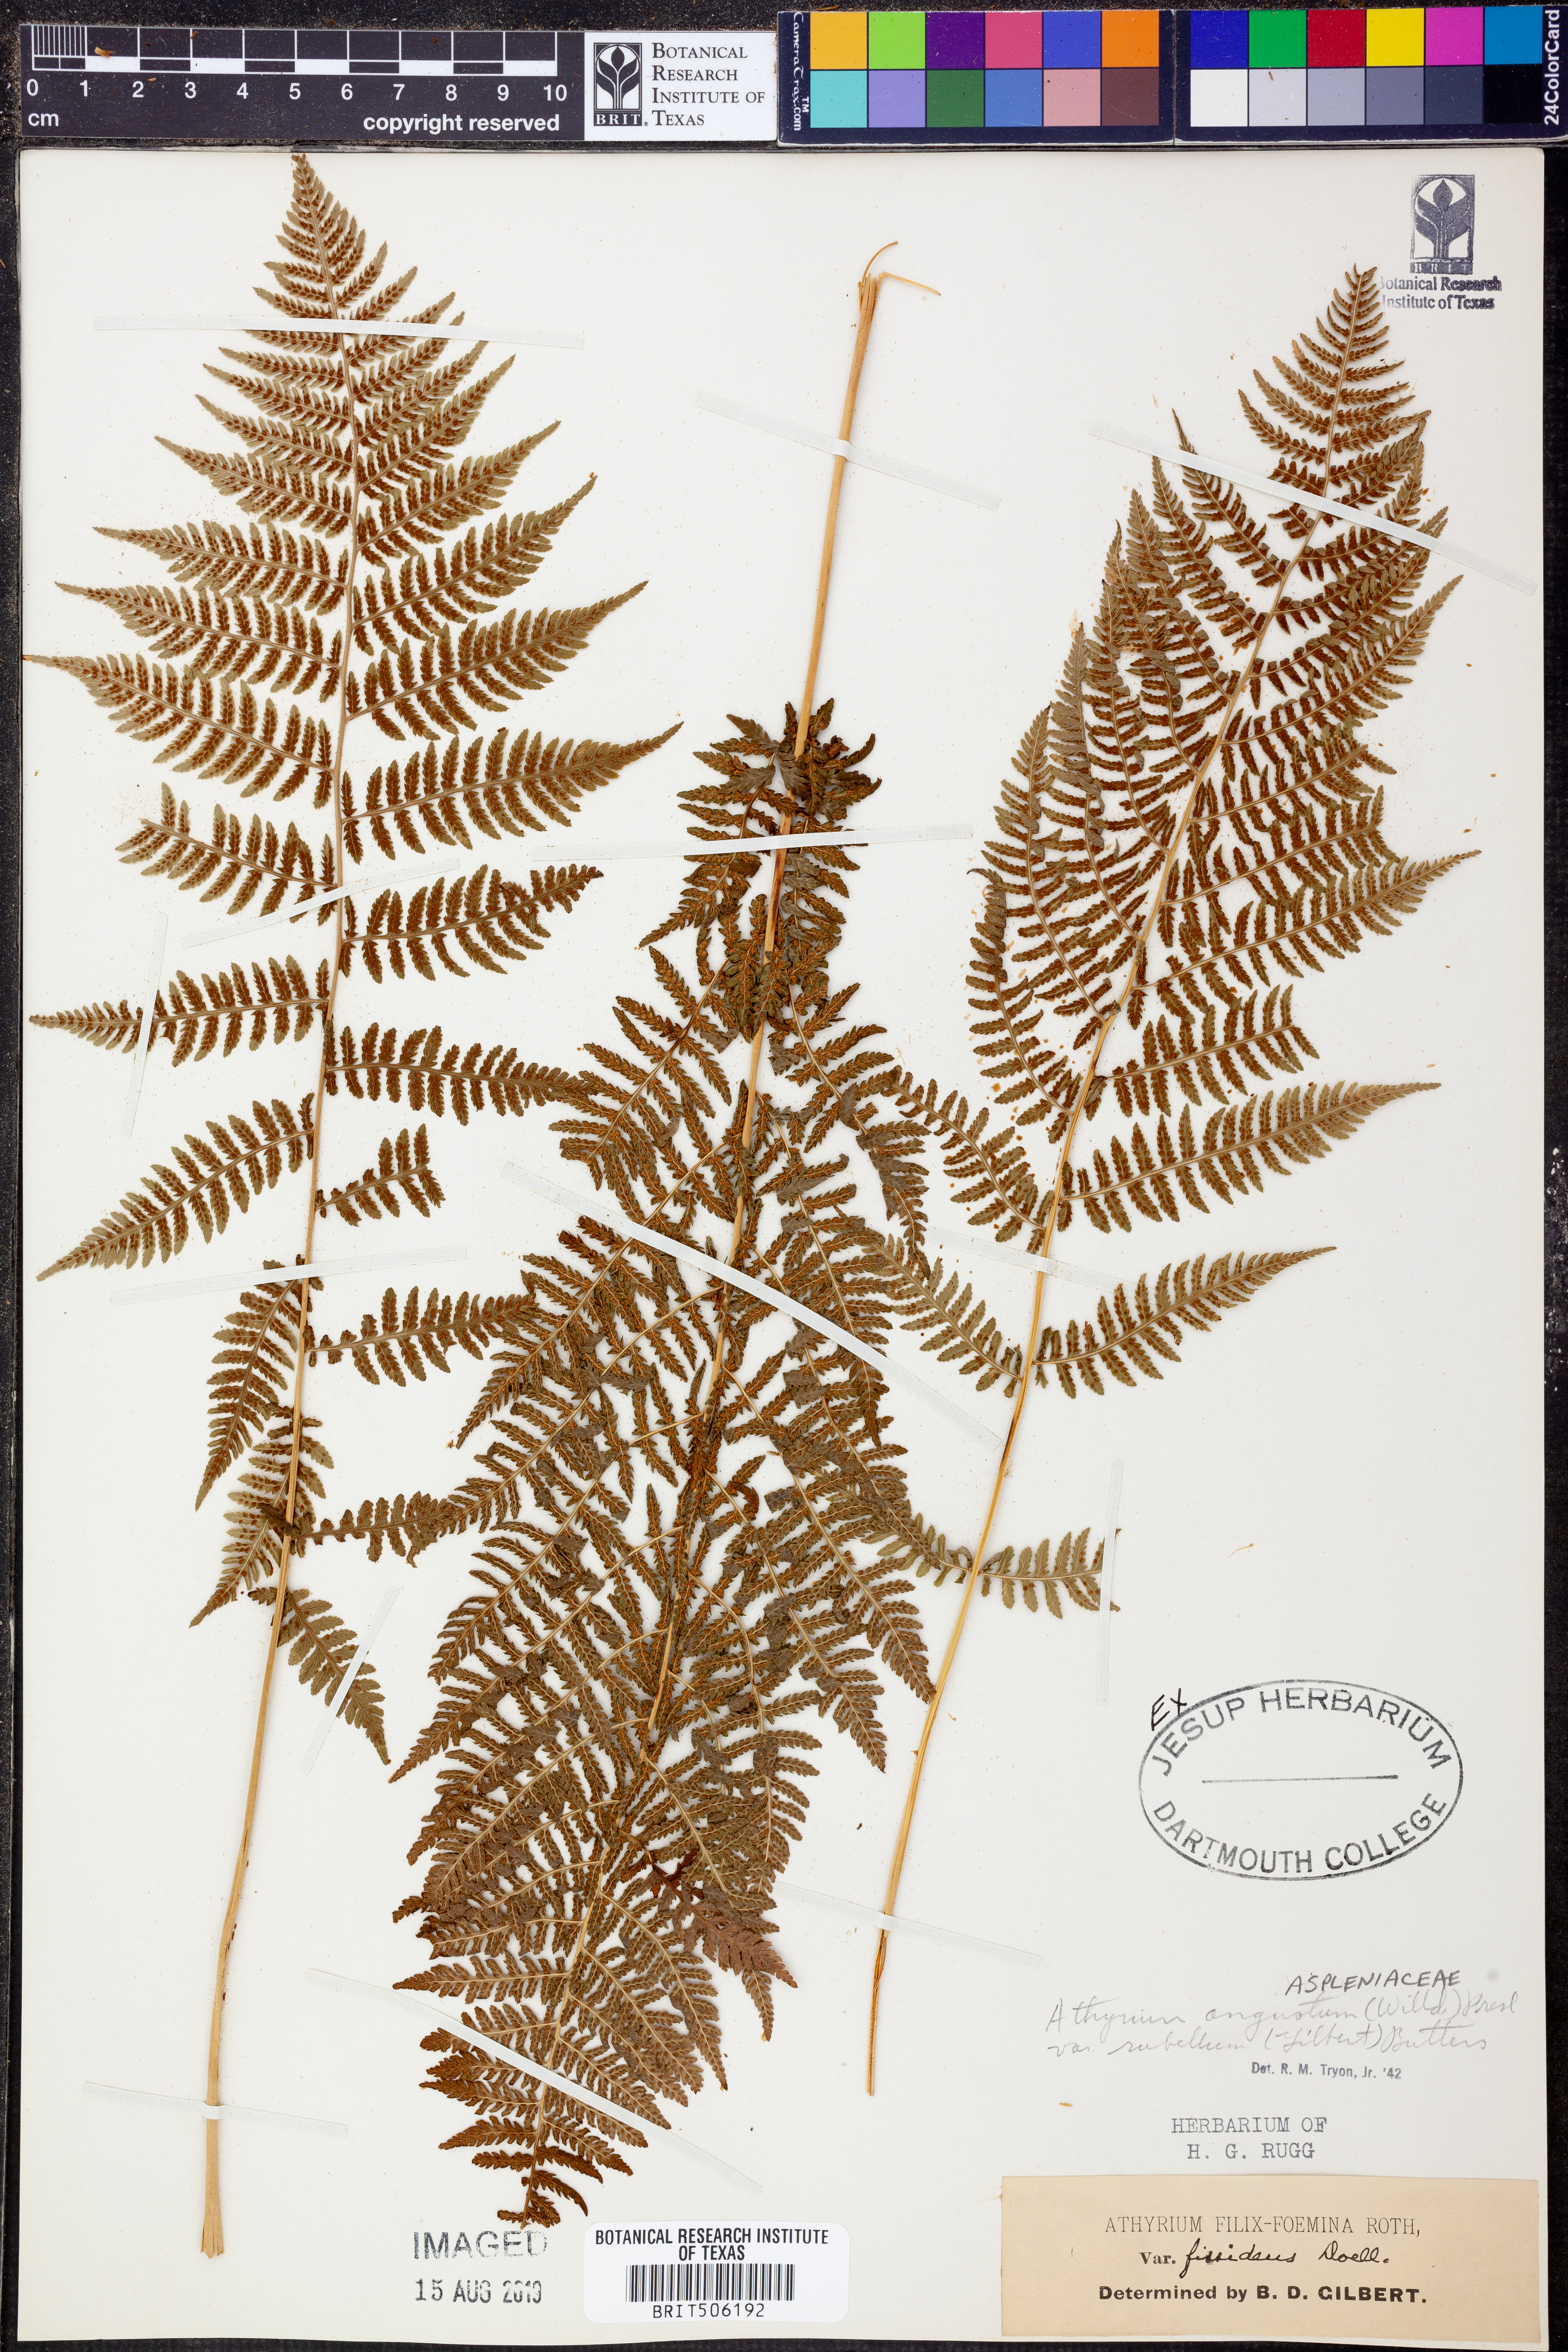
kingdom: Plantae
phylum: Tracheophyta
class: Polypodiopsida
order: Polypodiales
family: Athyriaceae
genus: Athyrium
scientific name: Athyrium angustum
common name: Northern lady fern
